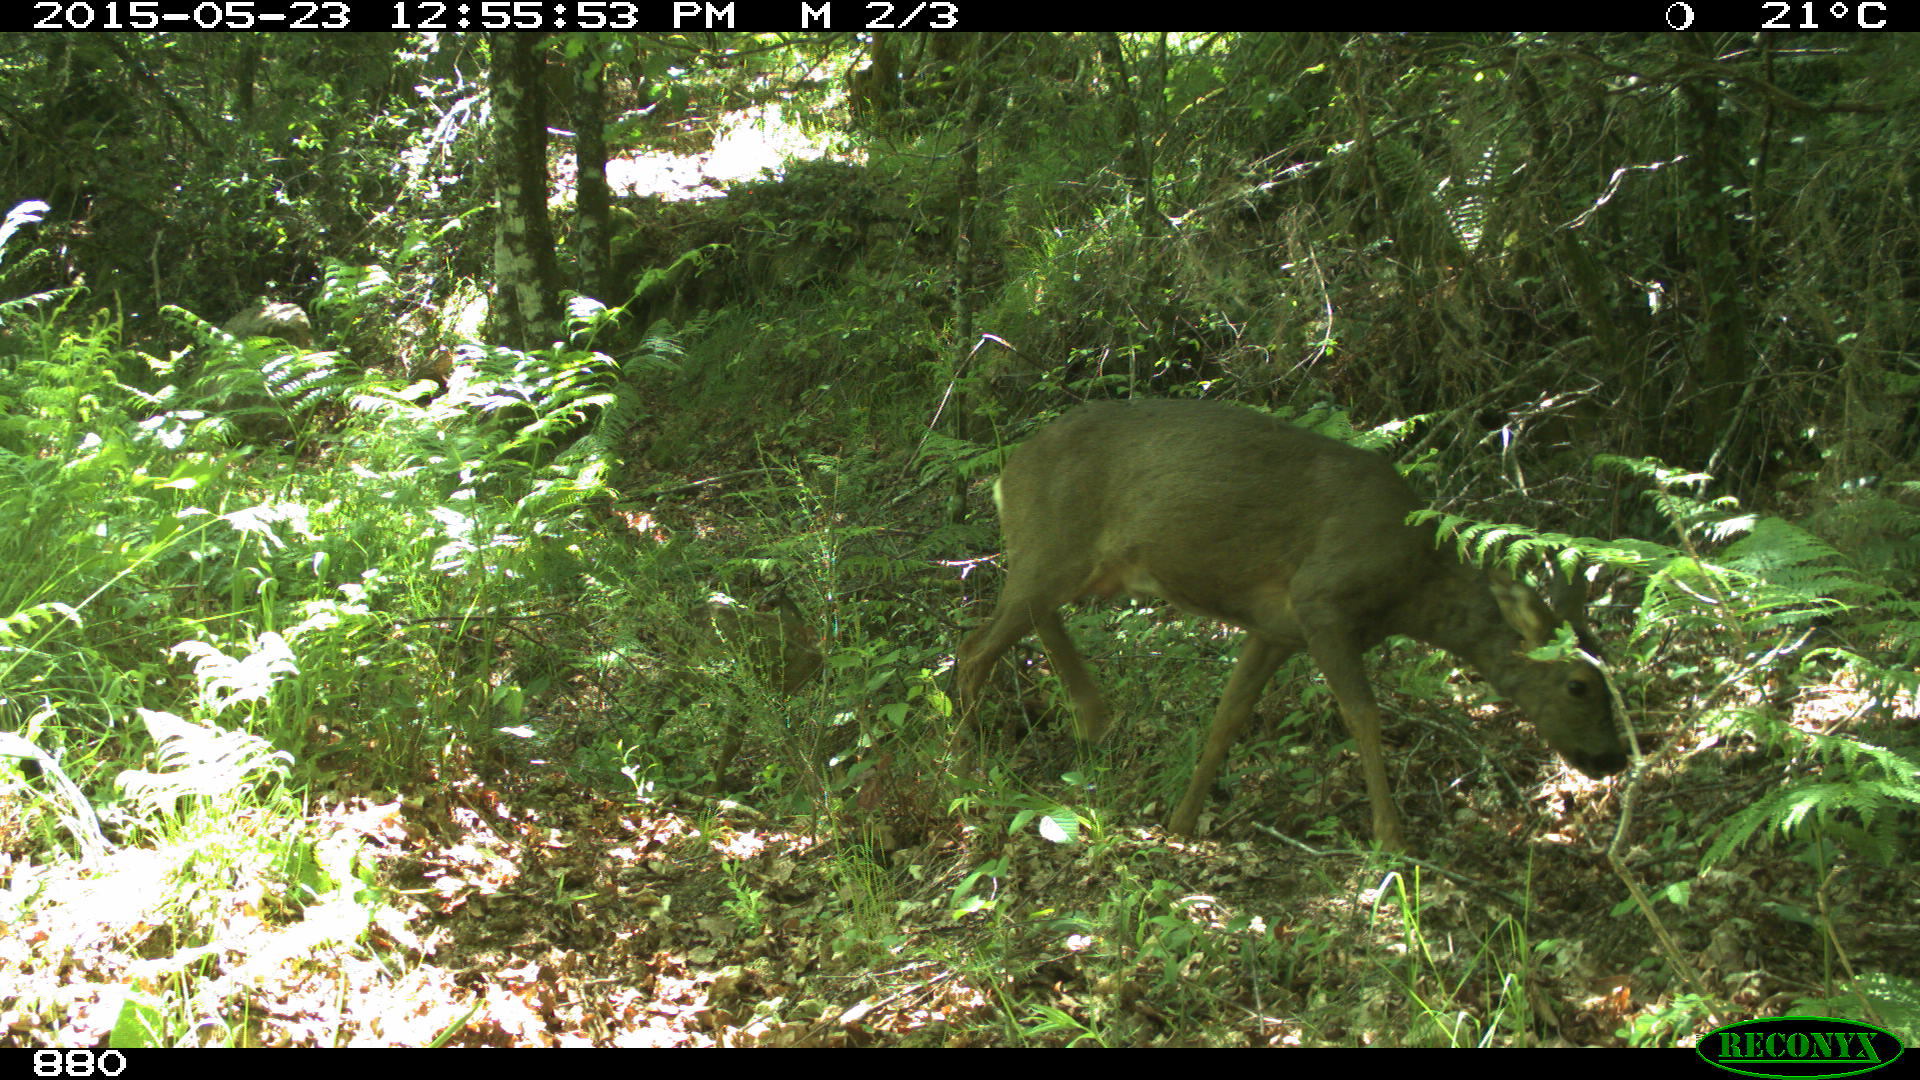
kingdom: Animalia
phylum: Chordata
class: Mammalia
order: Artiodactyla
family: Cervidae
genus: Capreolus
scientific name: Capreolus capreolus
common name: Western roe deer
